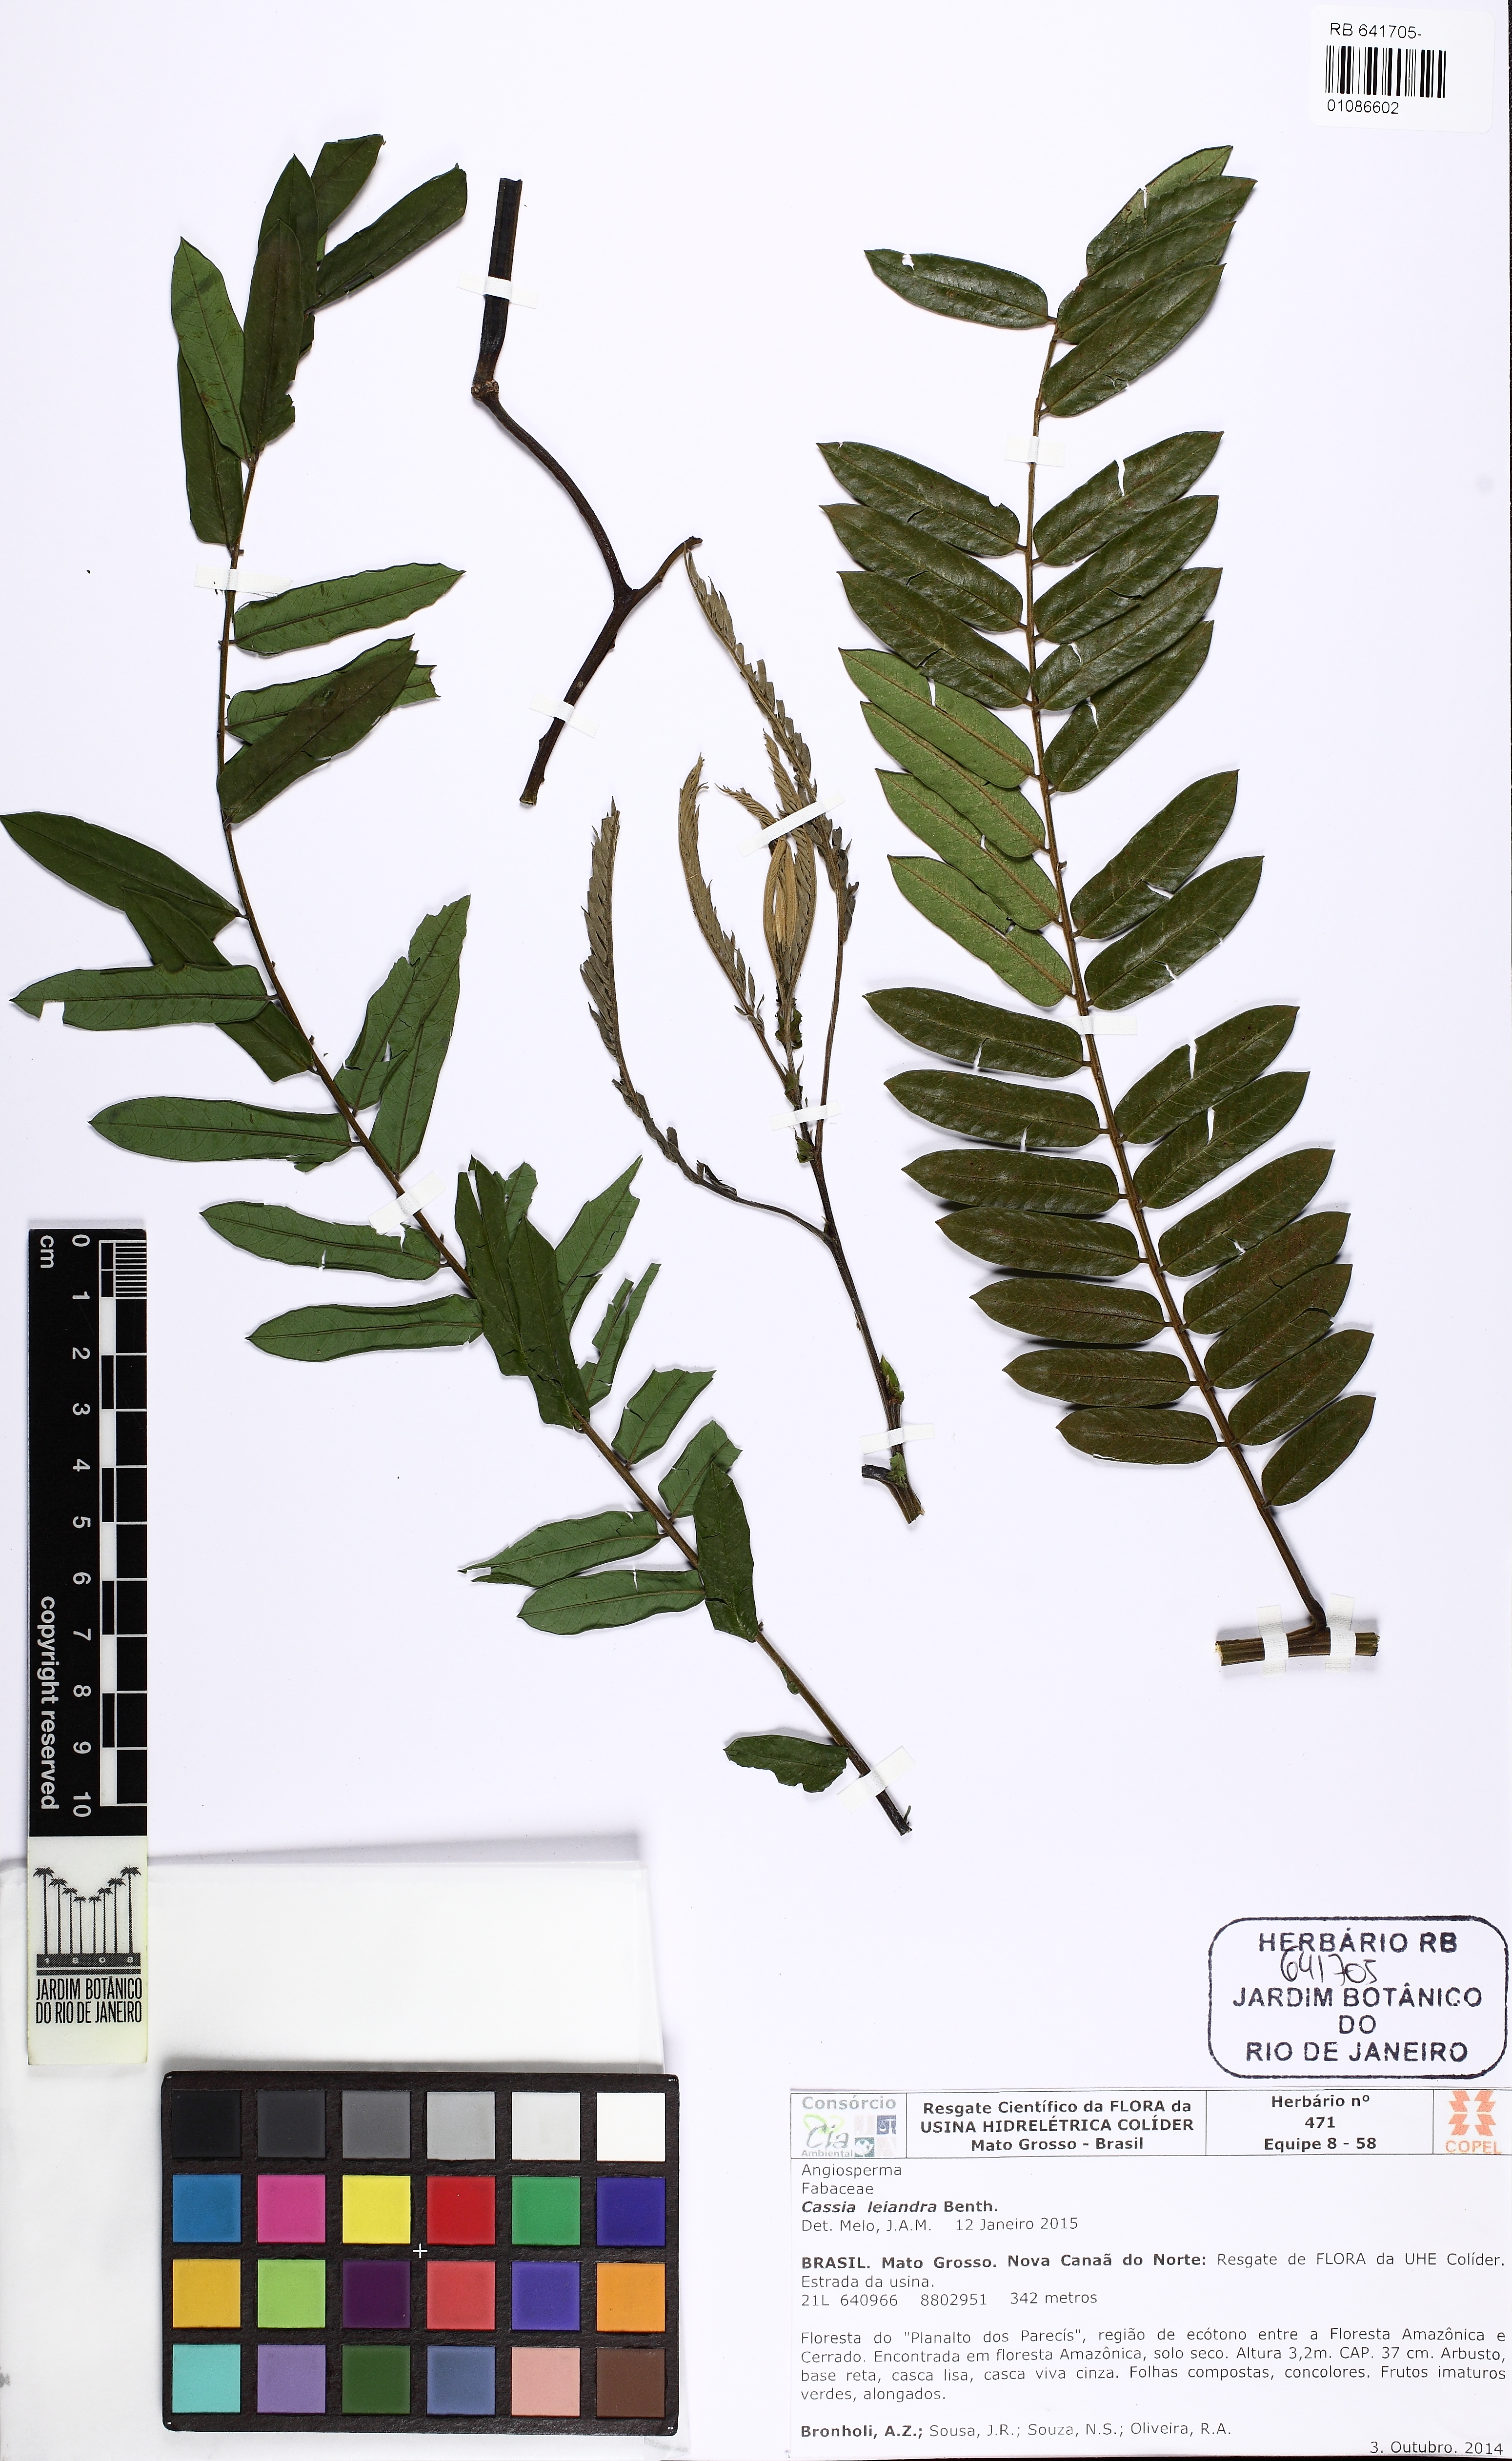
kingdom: Plantae
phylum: Tracheophyta
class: Magnoliopsida
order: Fabales
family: Fabaceae
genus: Cassia
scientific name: Cassia leiandra
